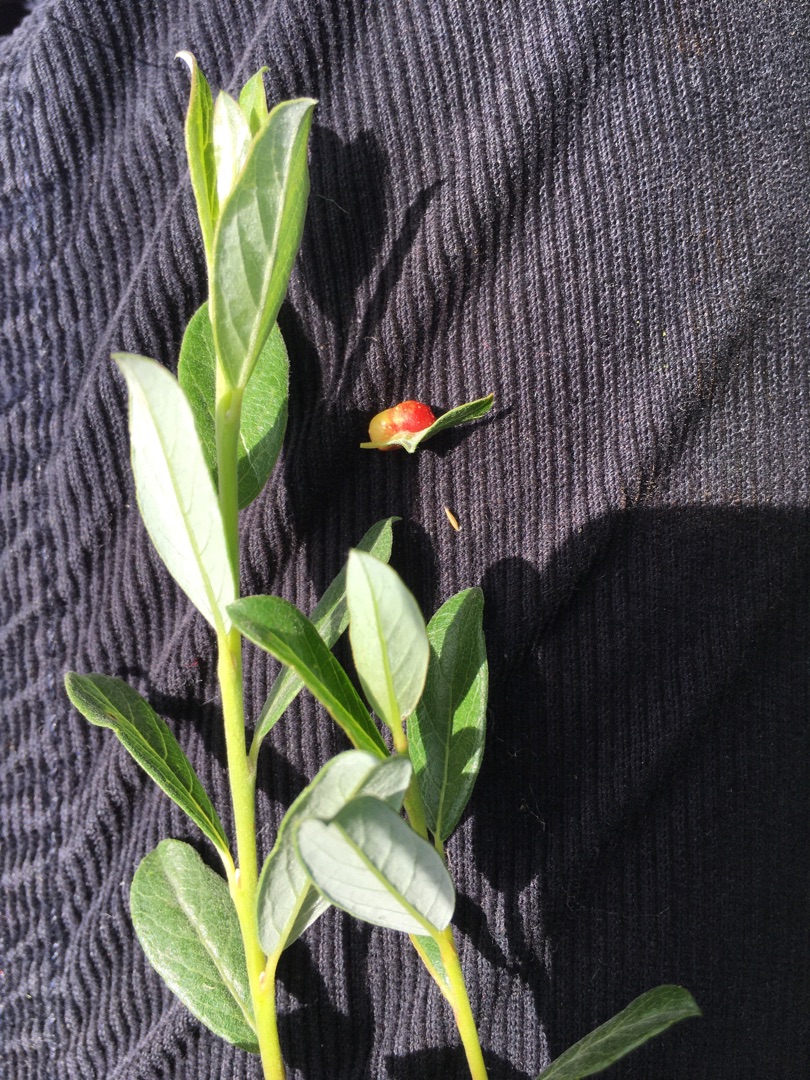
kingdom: Plantae
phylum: Tracheophyta
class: Magnoliopsida
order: Malpighiales
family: Salicaceae
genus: Salix
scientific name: Salix repens
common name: Krybende pil
